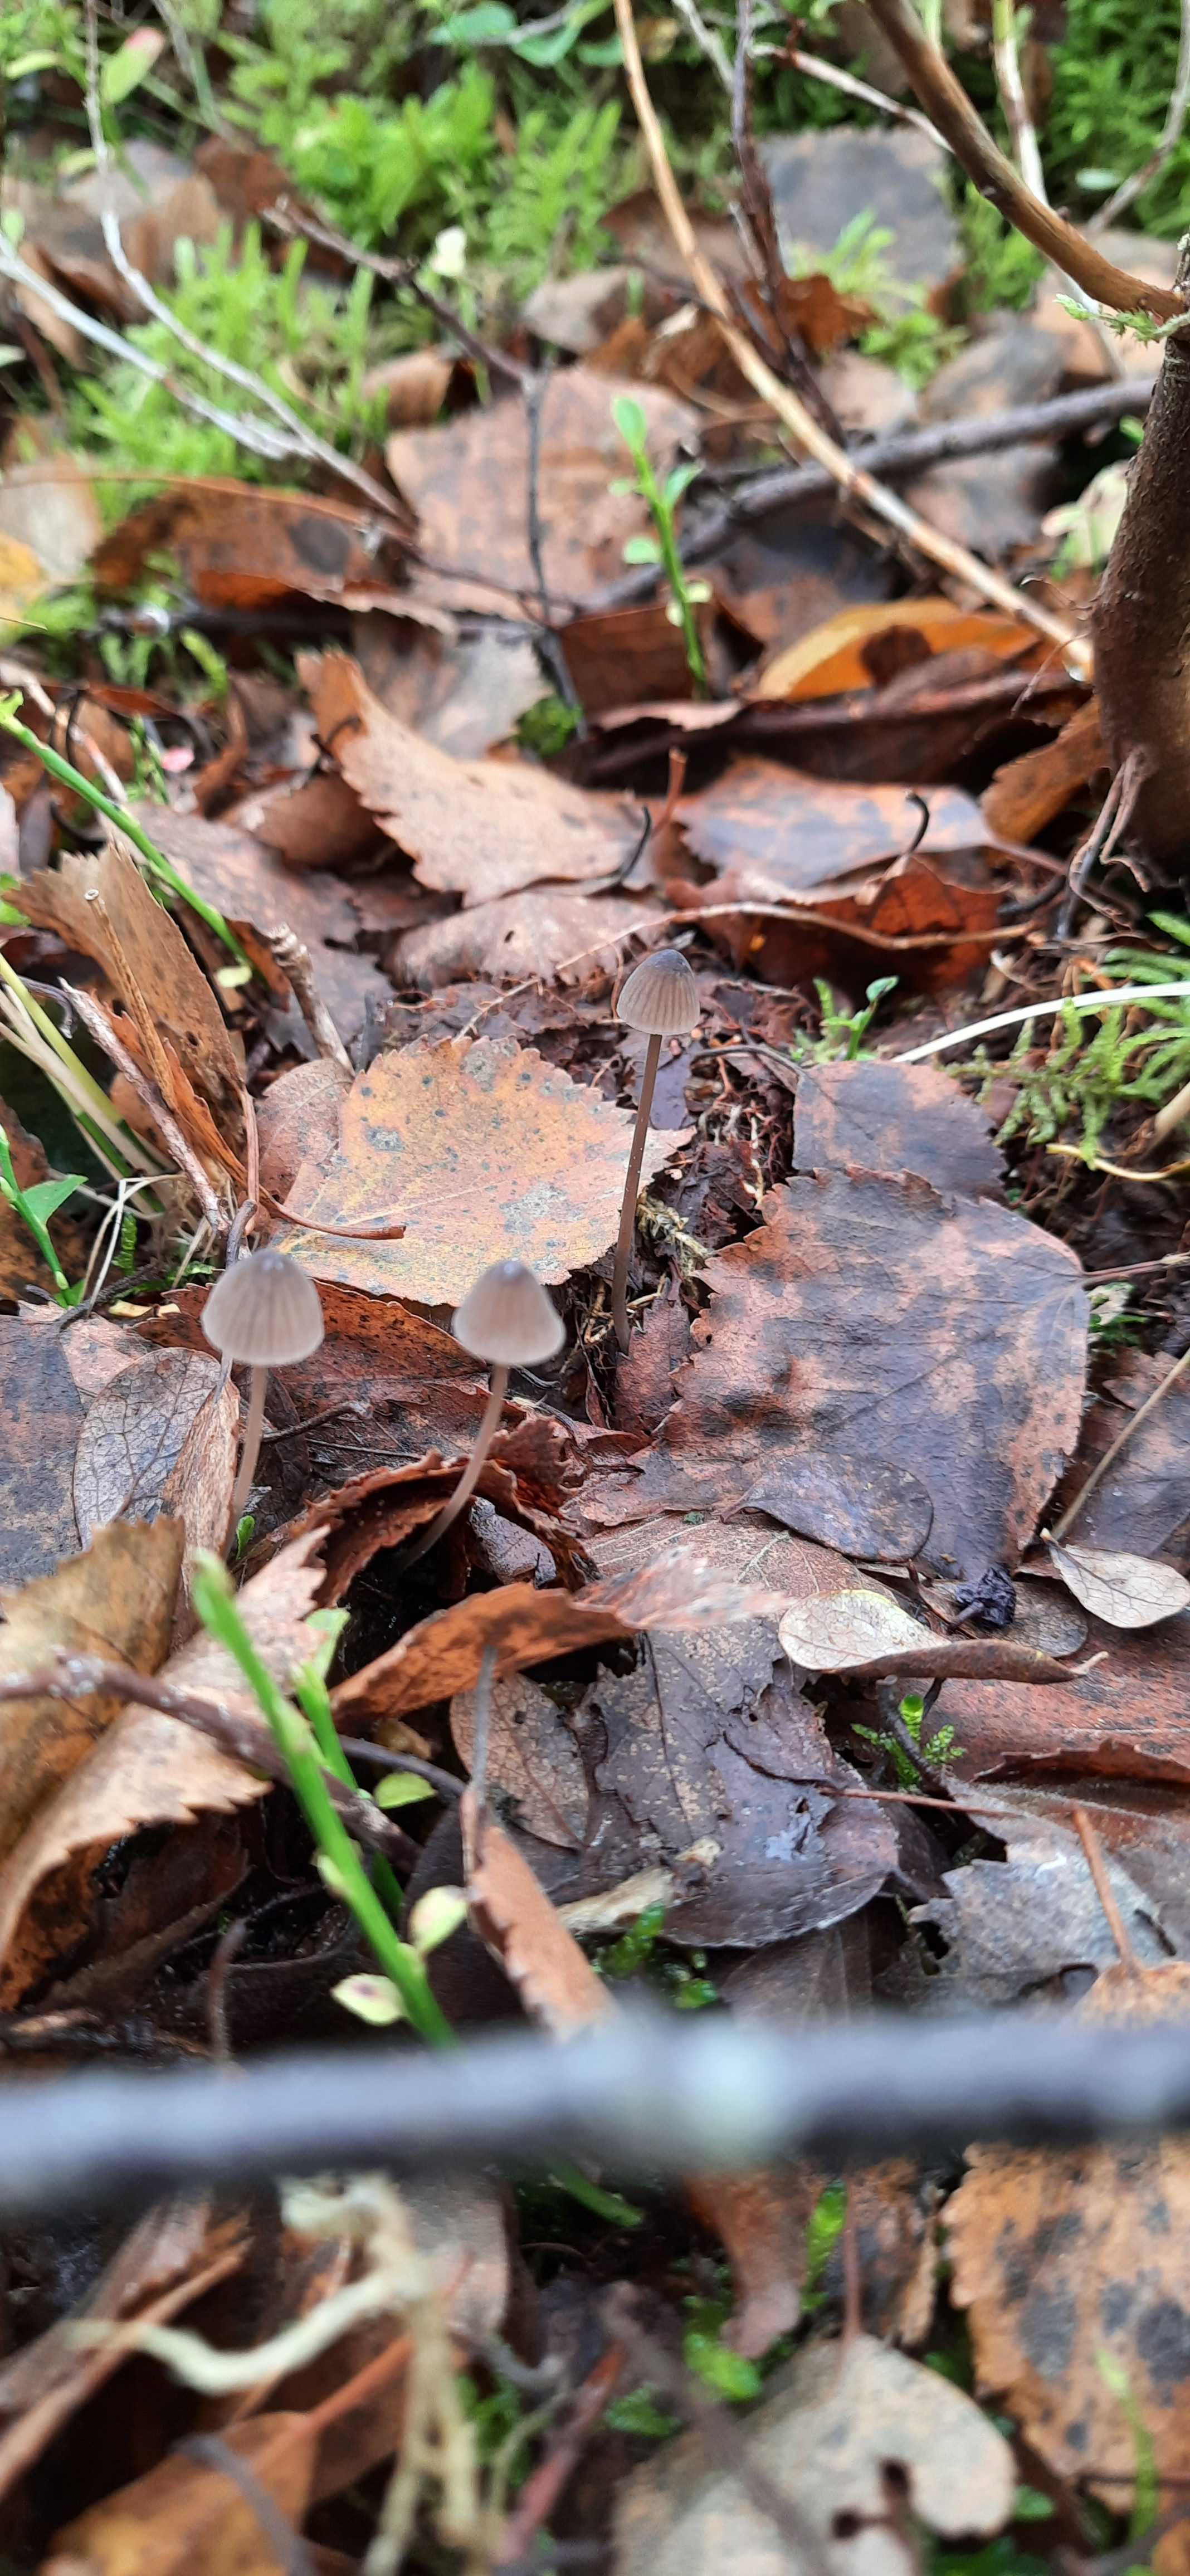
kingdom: Fungi
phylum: Basidiomycota
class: Agaricomycetes
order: Agaricales
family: Mycenaceae
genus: Mycena
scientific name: Mycena
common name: huesvamp
